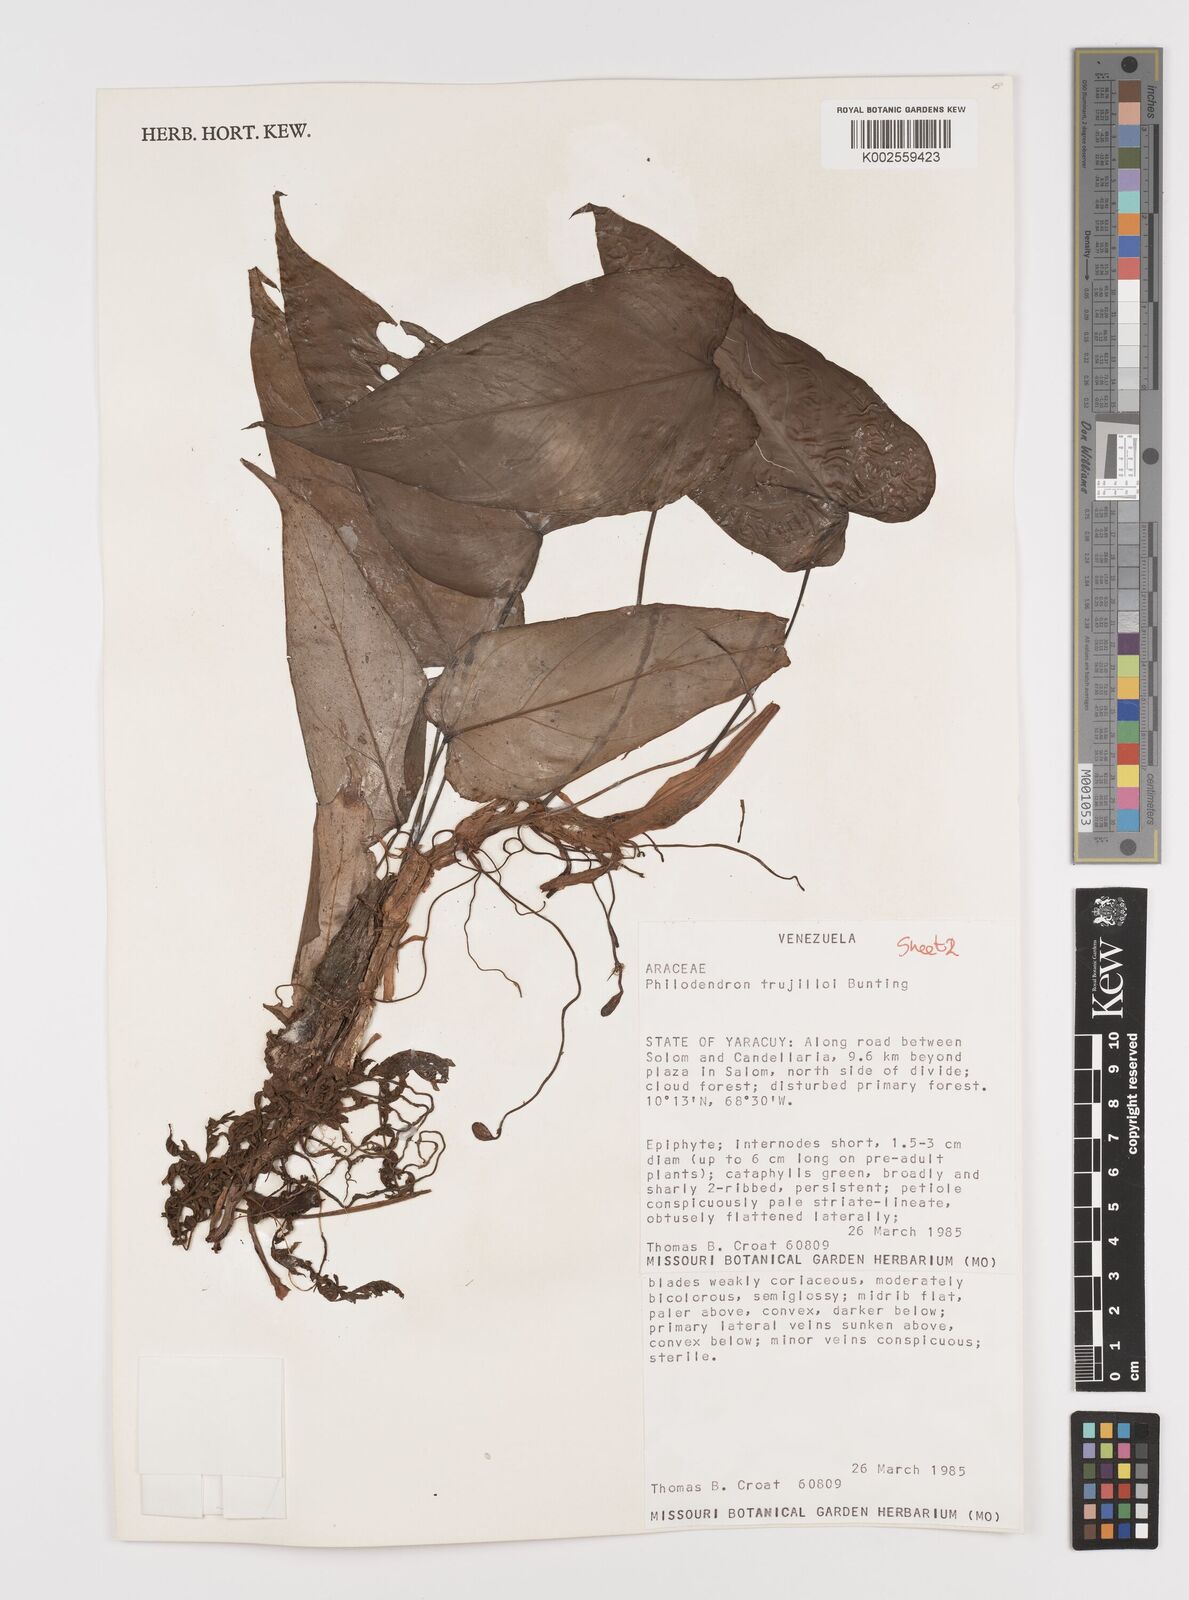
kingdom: Plantae
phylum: Tracheophyta
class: Liliopsida
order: Alismatales
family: Araceae
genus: Philodendron
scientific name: Philodendron trujilloi
